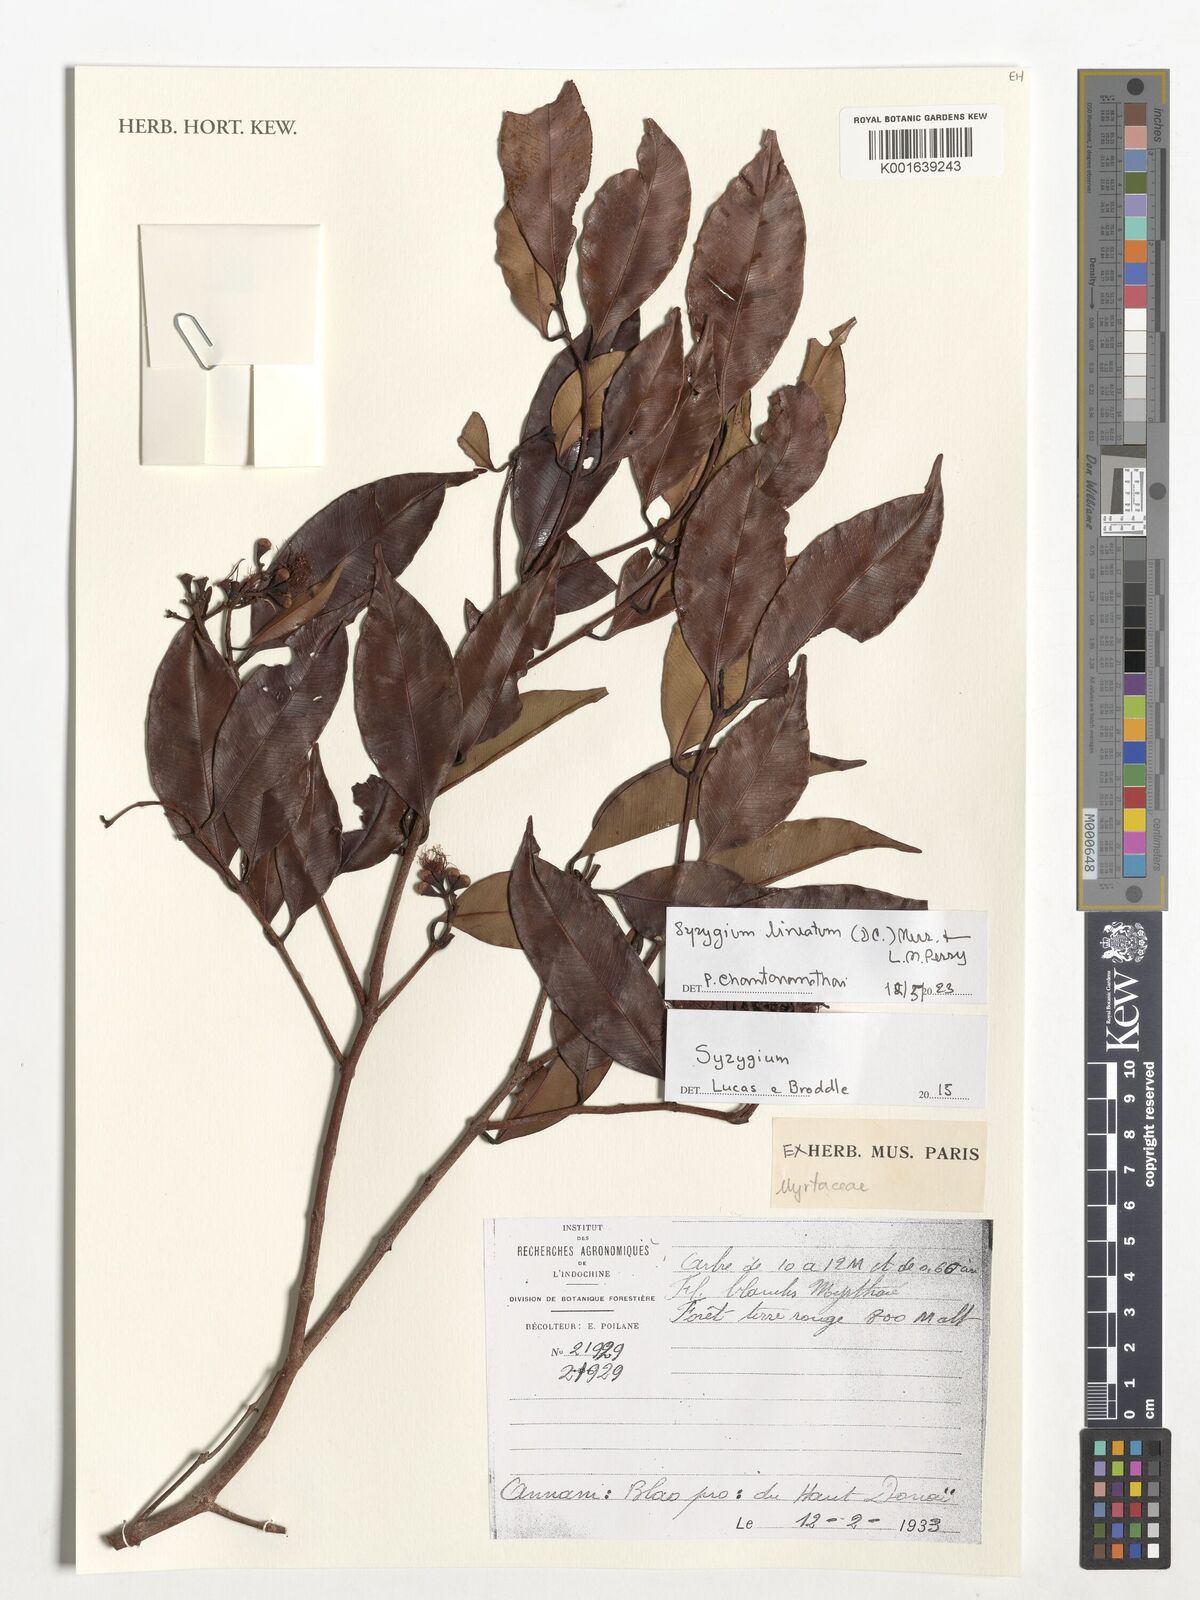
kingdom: Plantae
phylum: Tracheophyta
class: Magnoliopsida
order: Myrtales
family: Myrtaceae
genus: Syzygium
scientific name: Syzygium lineatum
